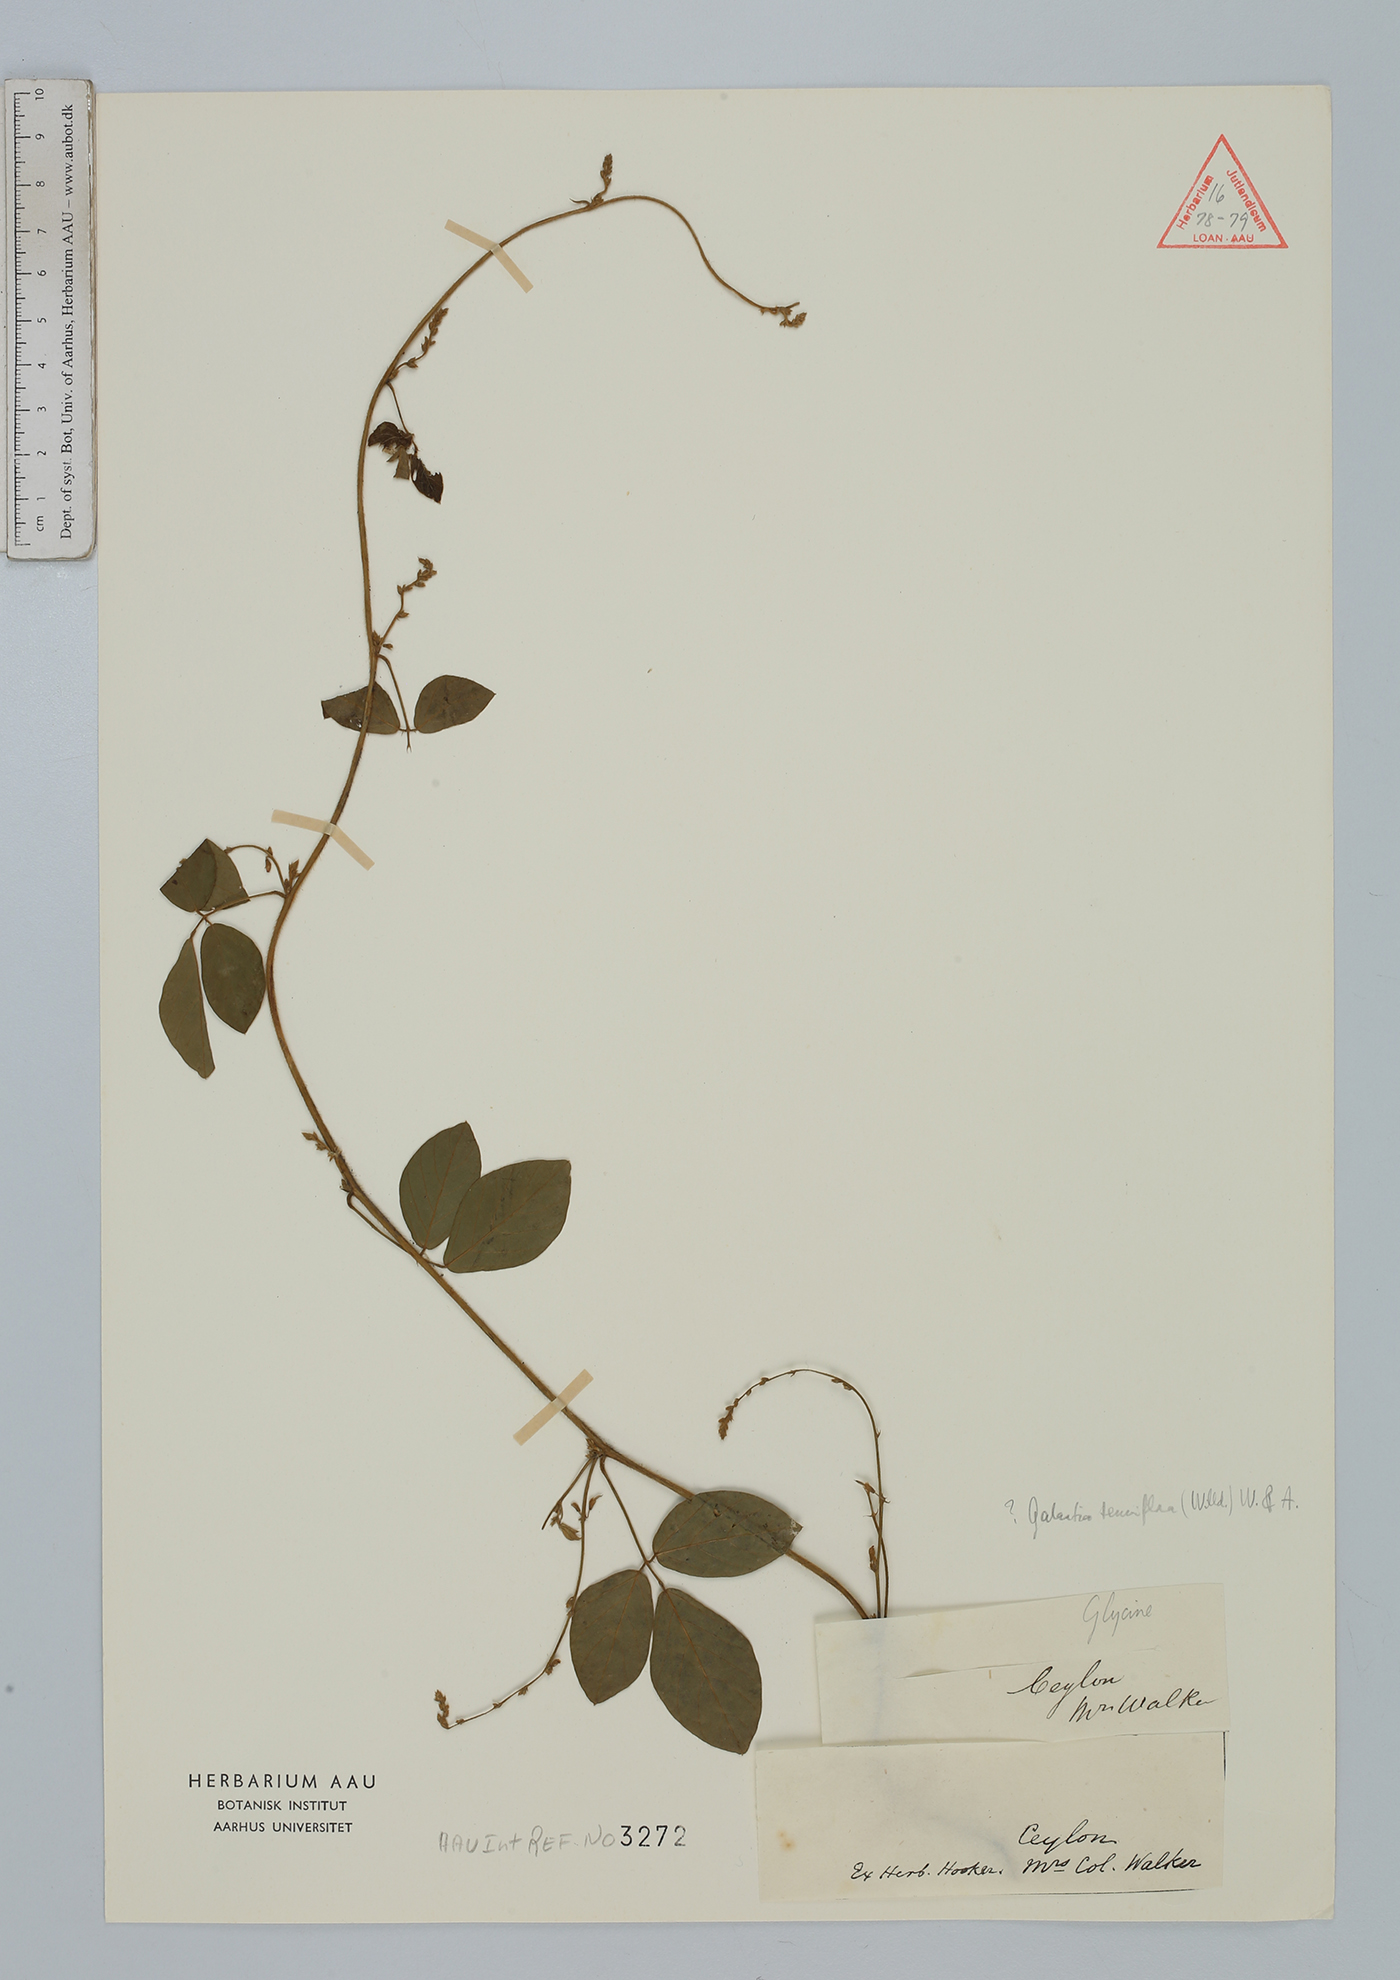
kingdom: Plantae
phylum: Tracheophyta
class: Magnoliopsida
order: Fabales
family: Fabaceae
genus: Galactia
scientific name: Galactia striata
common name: Florida hammock milkpea
